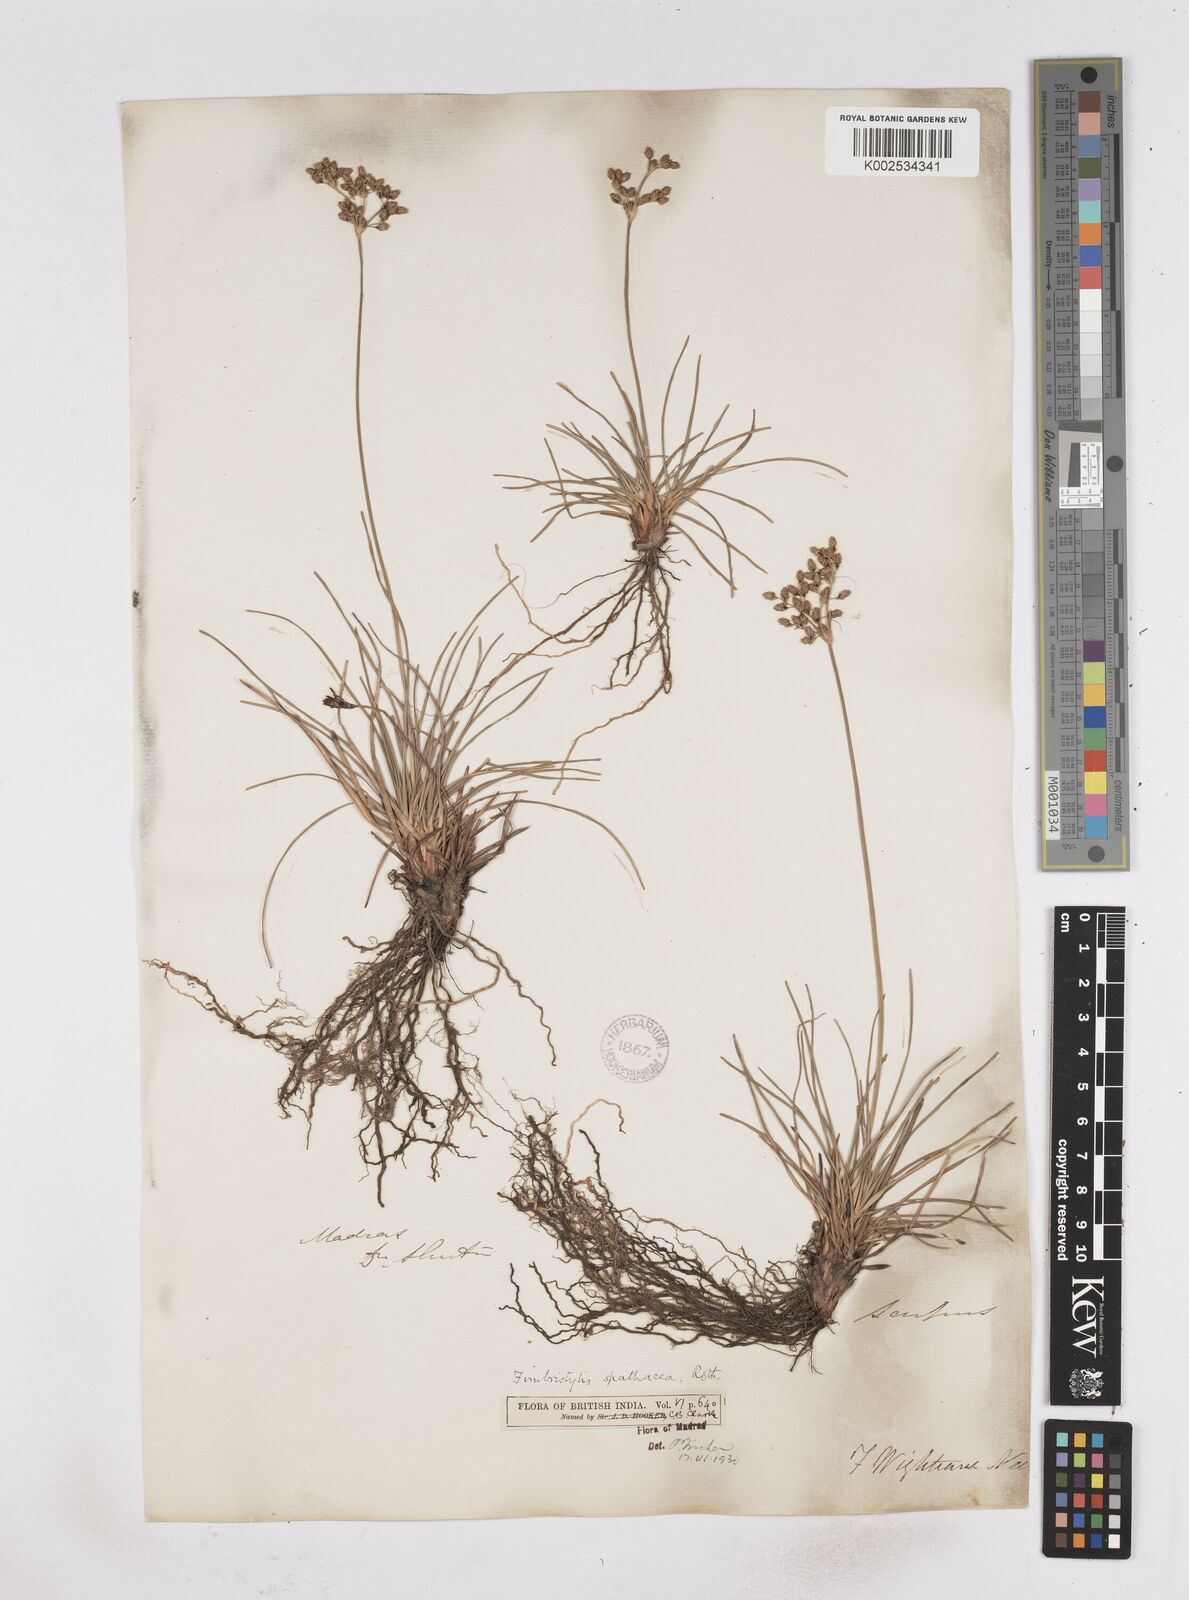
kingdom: Plantae
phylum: Tracheophyta
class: Liliopsida
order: Poales
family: Cyperaceae
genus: Fimbristylis
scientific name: Fimbristylis cymosa
